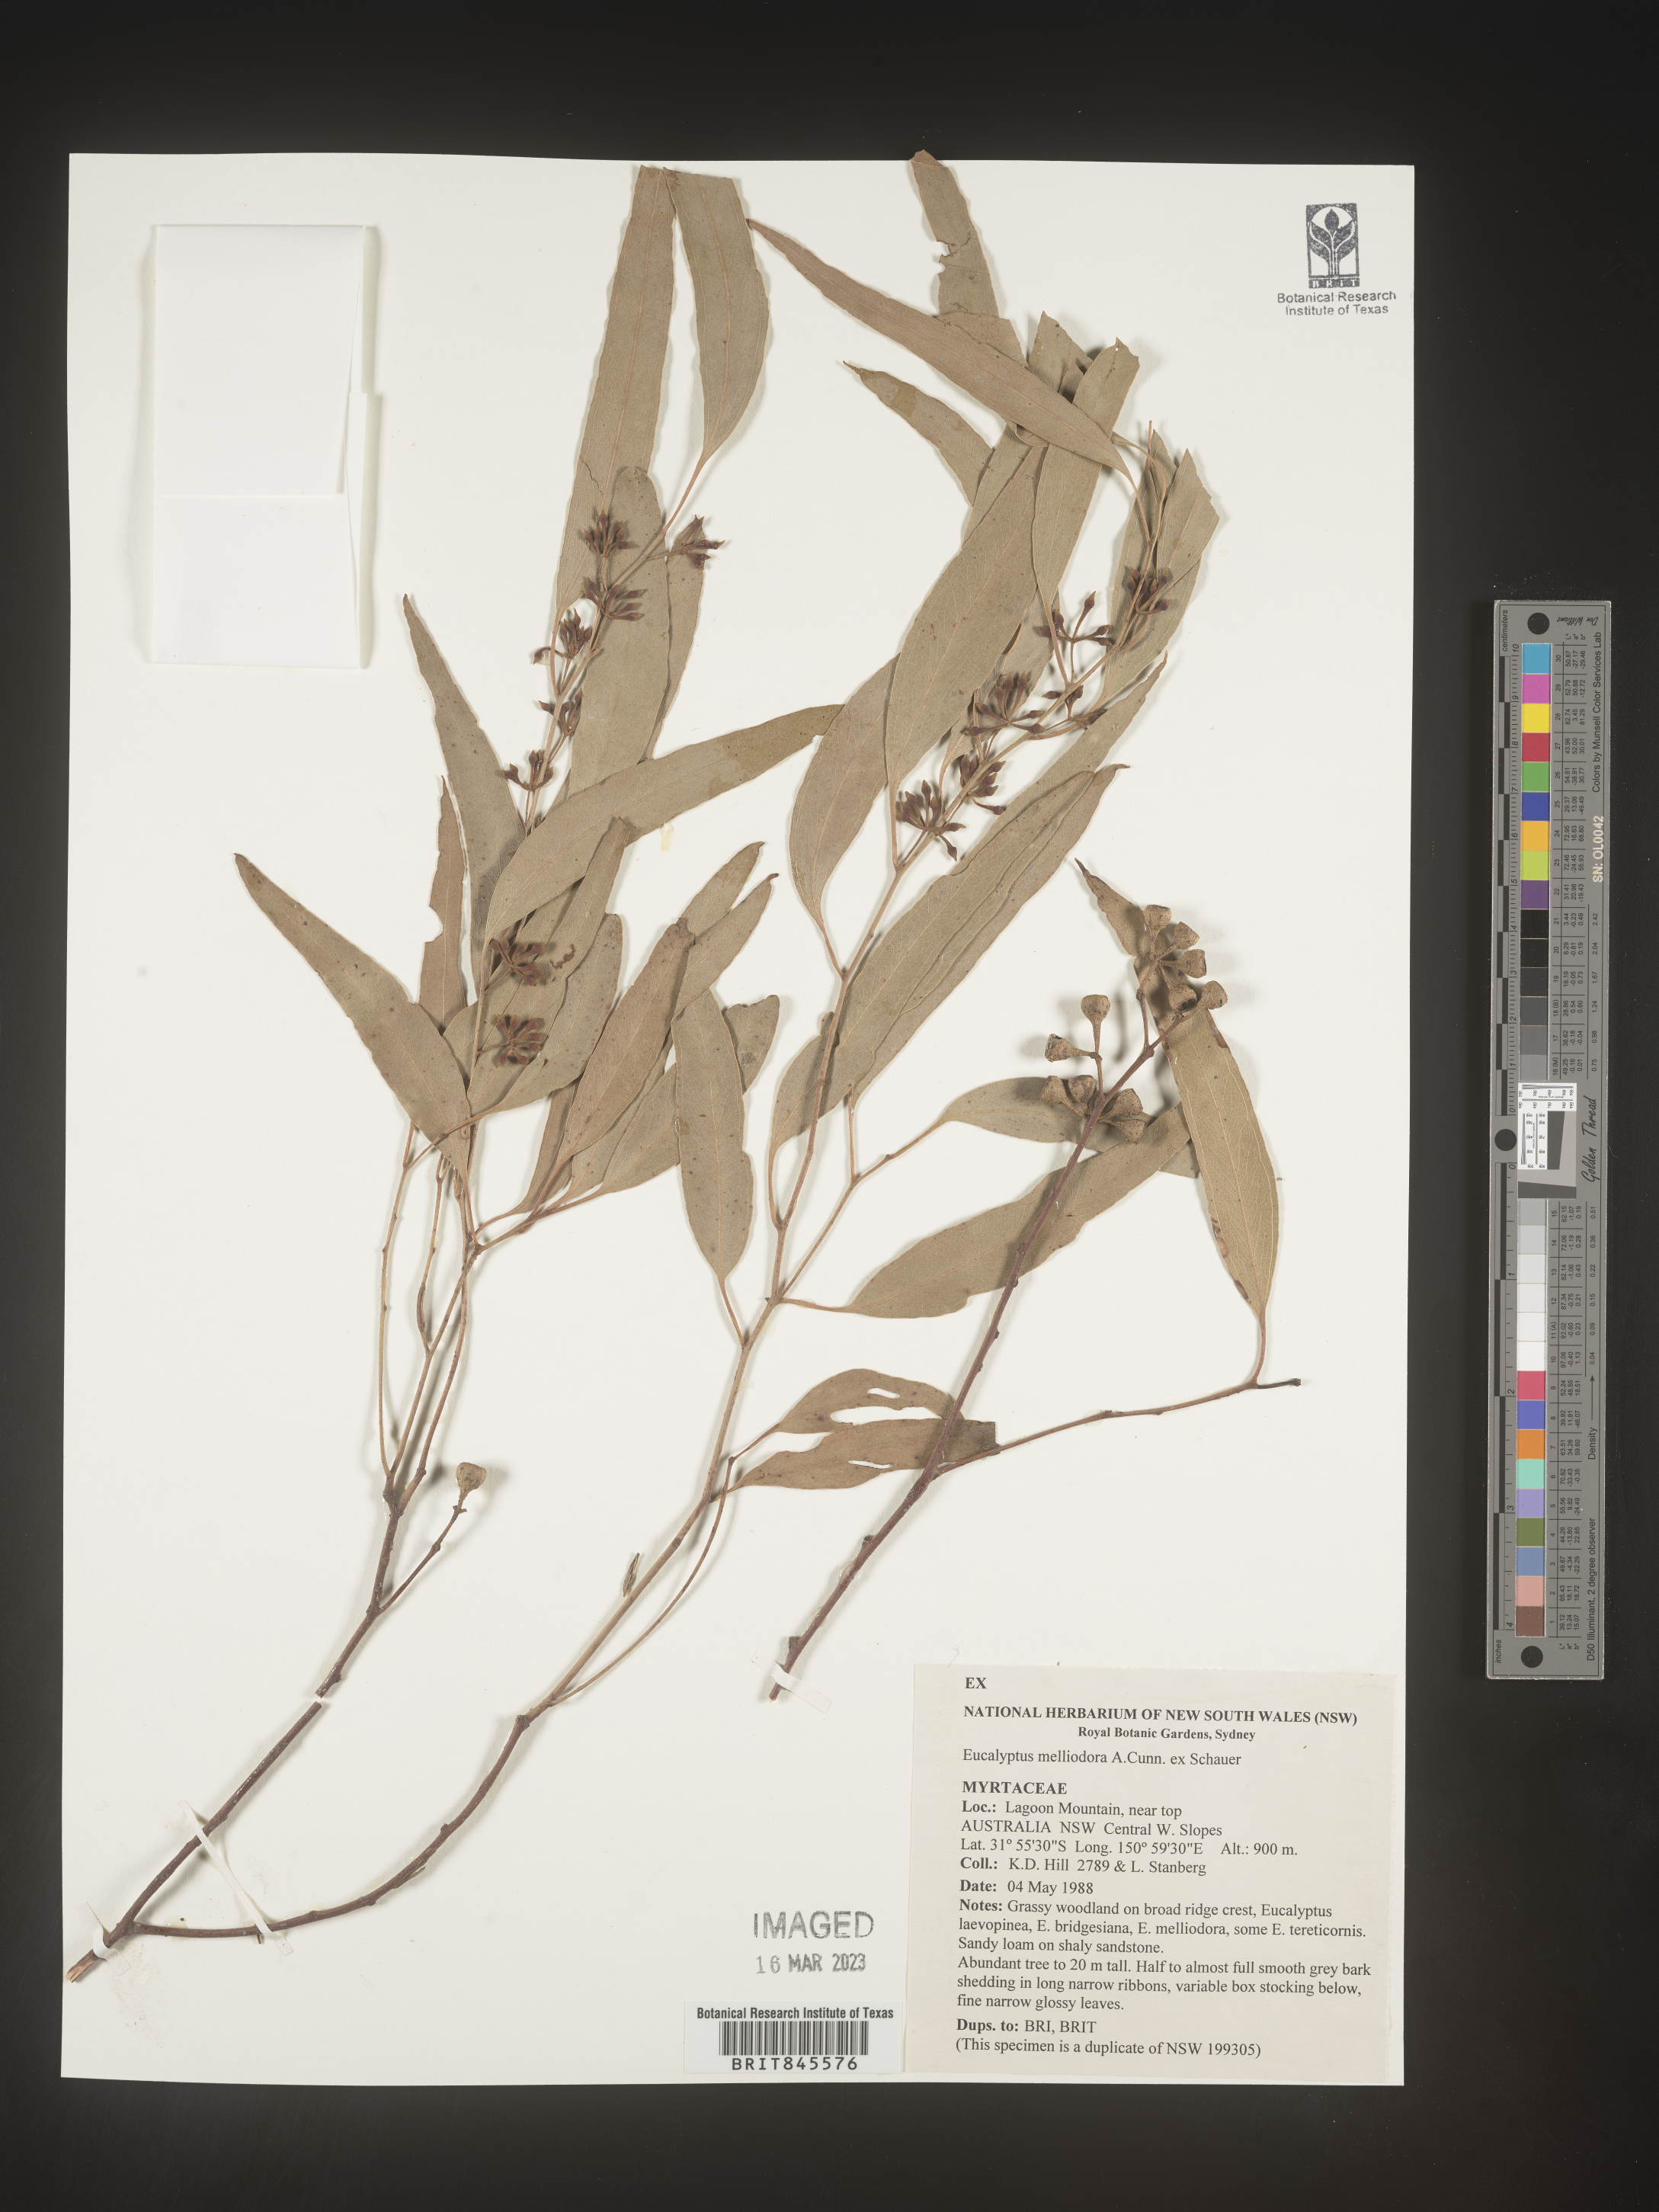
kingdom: Plantae
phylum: Tracheophyta
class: Magnoliopsida
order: Myrtales
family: Myrtaceae
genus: Eucalyptus
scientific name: Eucalyptus
